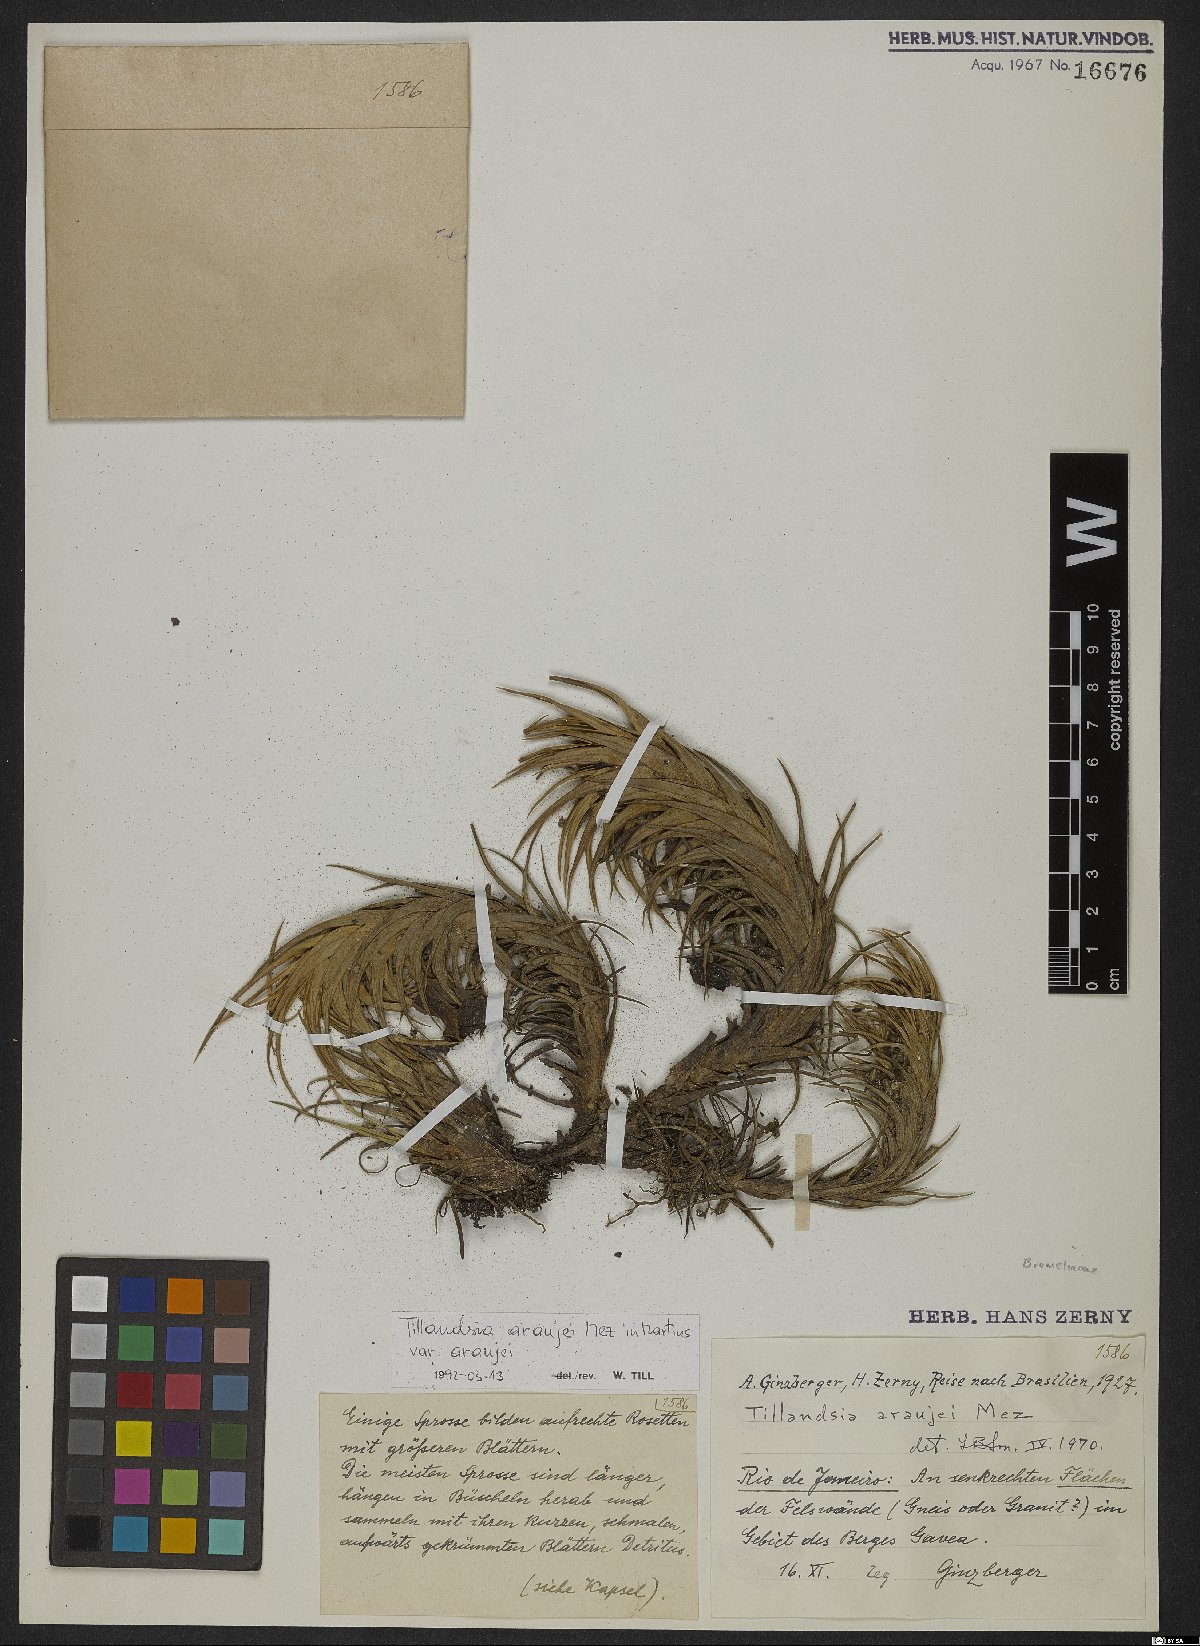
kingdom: Plantae
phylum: Tracheophyta
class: Liliopsida
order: Poales
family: Bromeliaceae
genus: Tillandsia
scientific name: Tillandsia araujei
